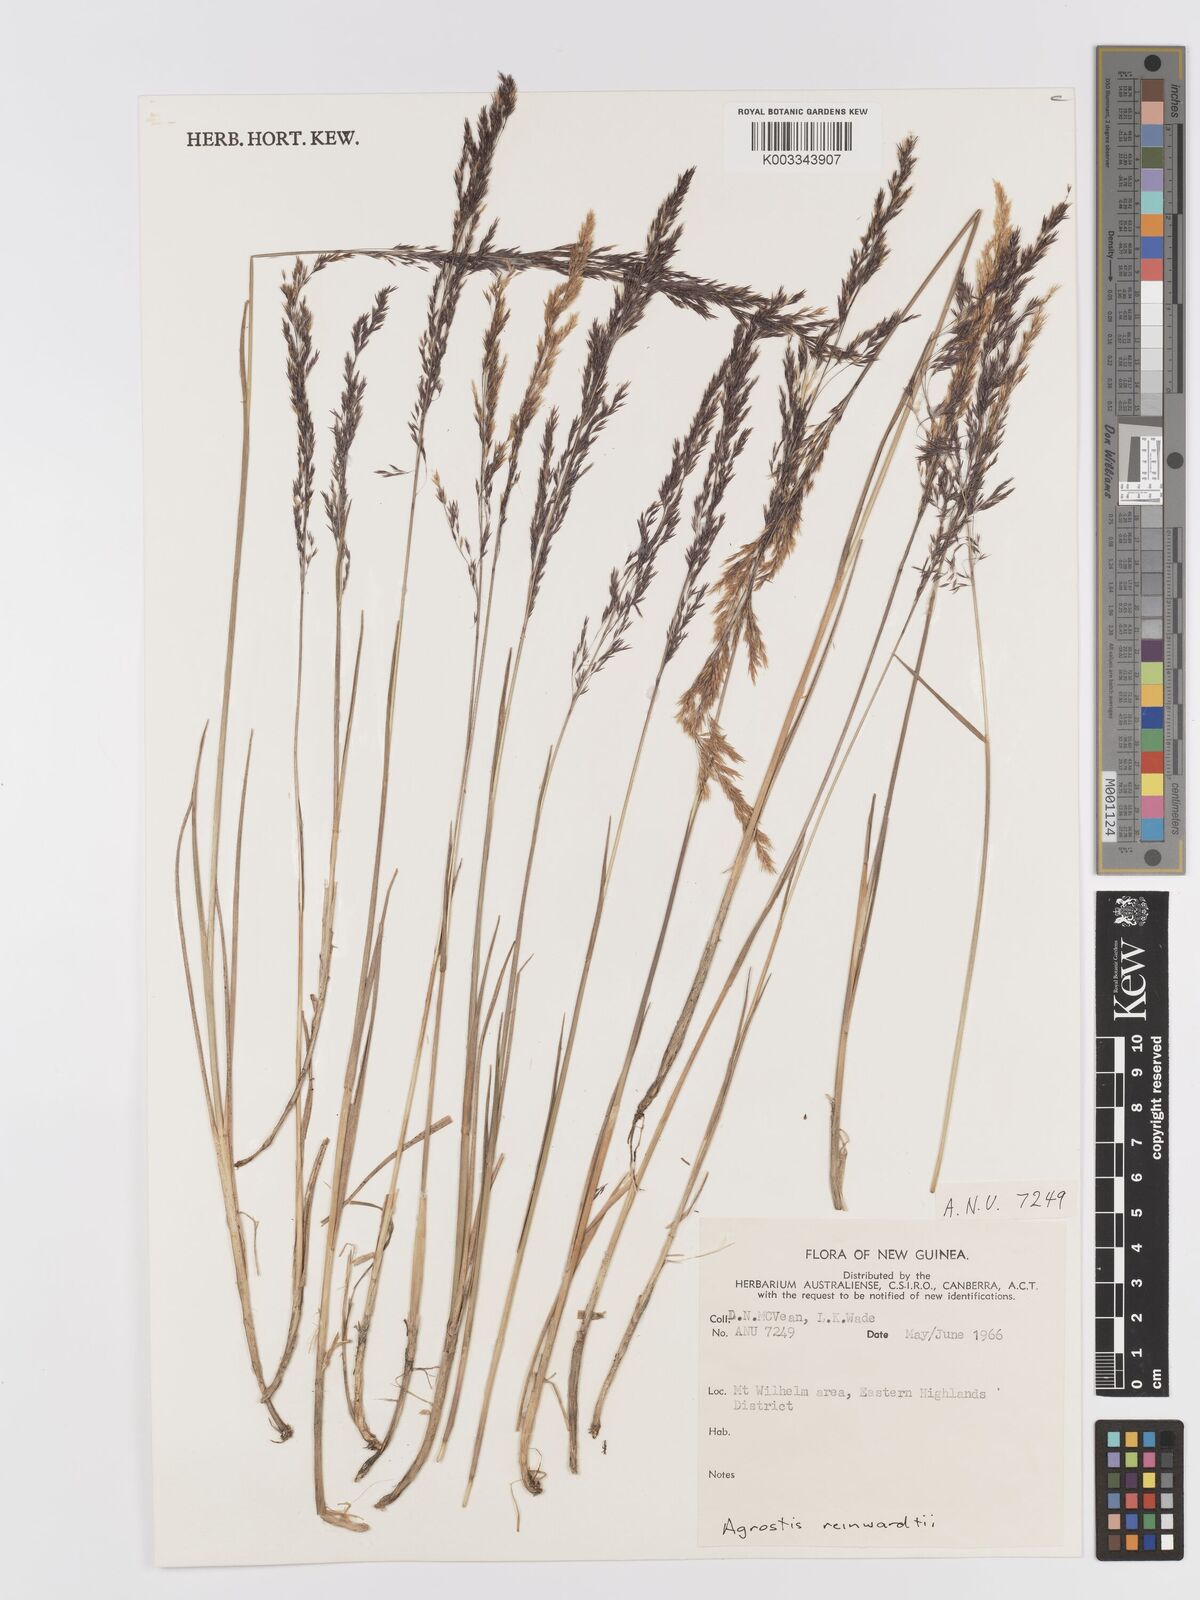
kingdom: Plantae
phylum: Tracheophyta
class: Liliopsida
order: Poales
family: Poaceae
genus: Agrostis
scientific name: Agrostis infirma
